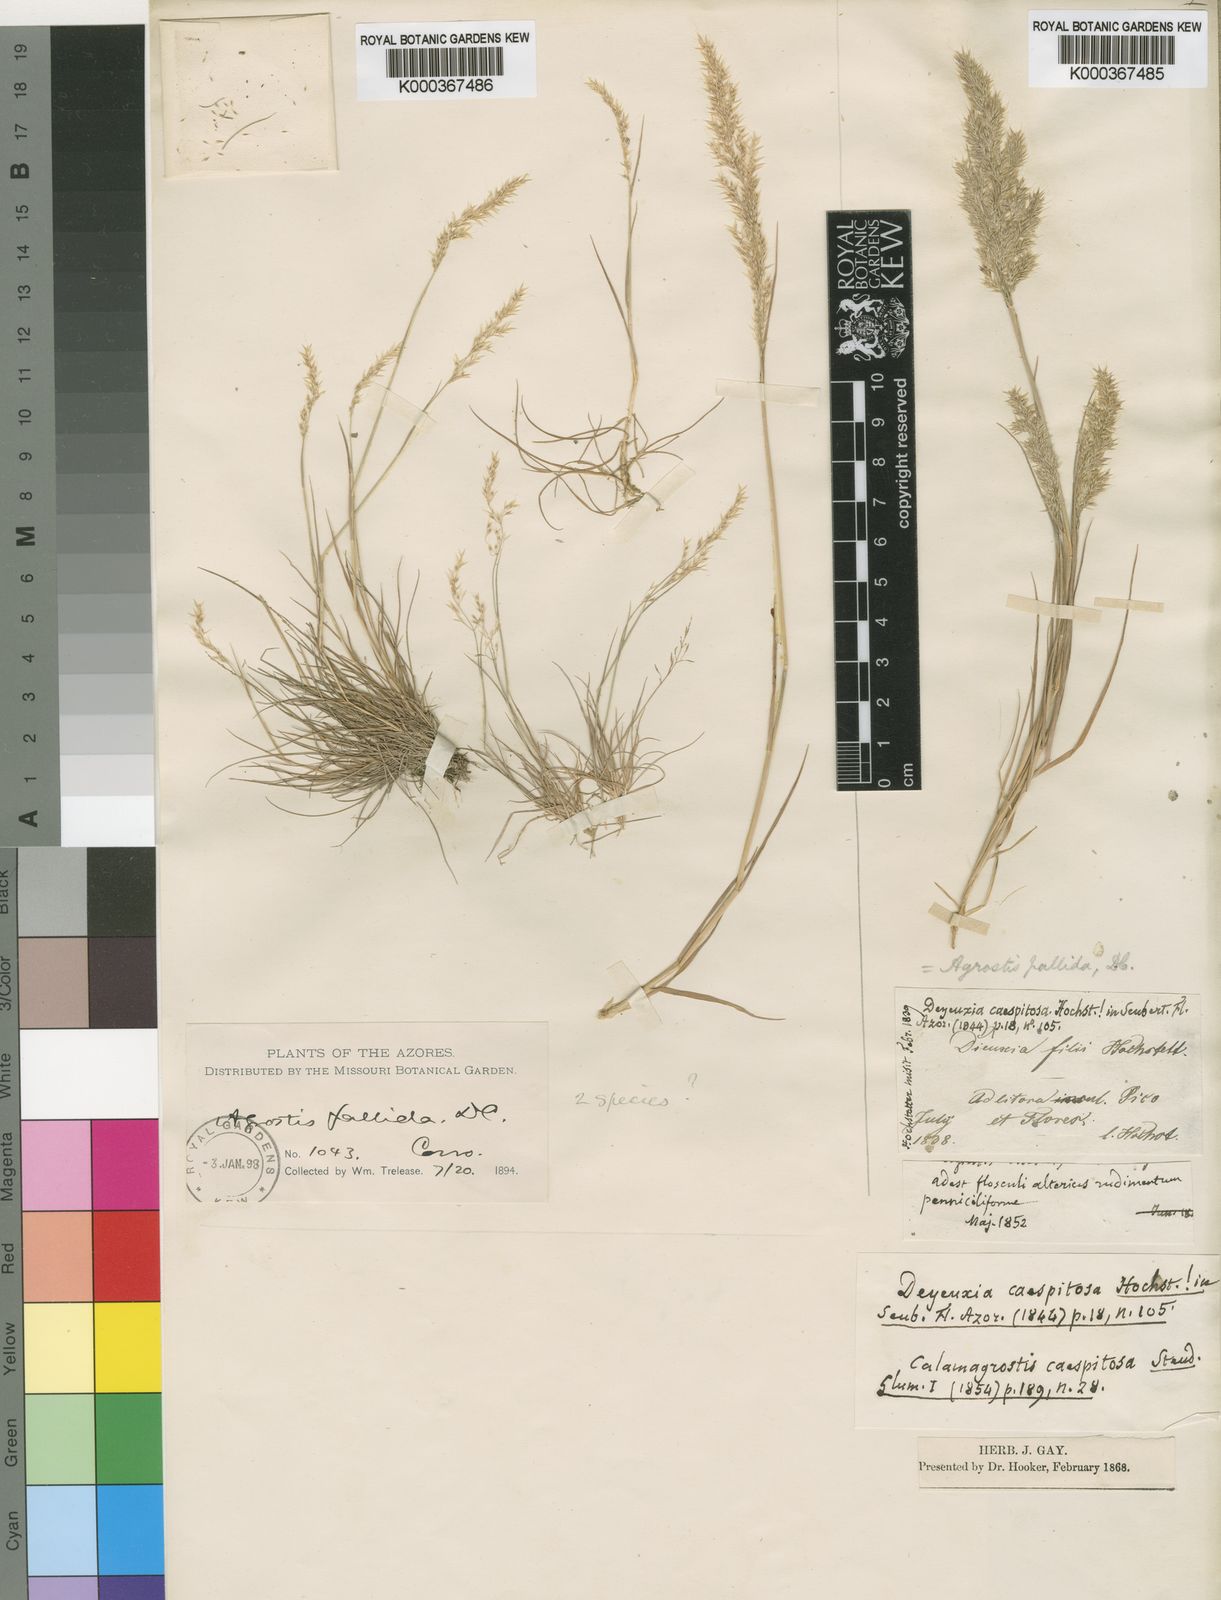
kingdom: Plantae
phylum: Tracheophyta
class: Liliopsida
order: Poales
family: Poaceae
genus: Agrostis
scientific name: Agrostis pourretii
